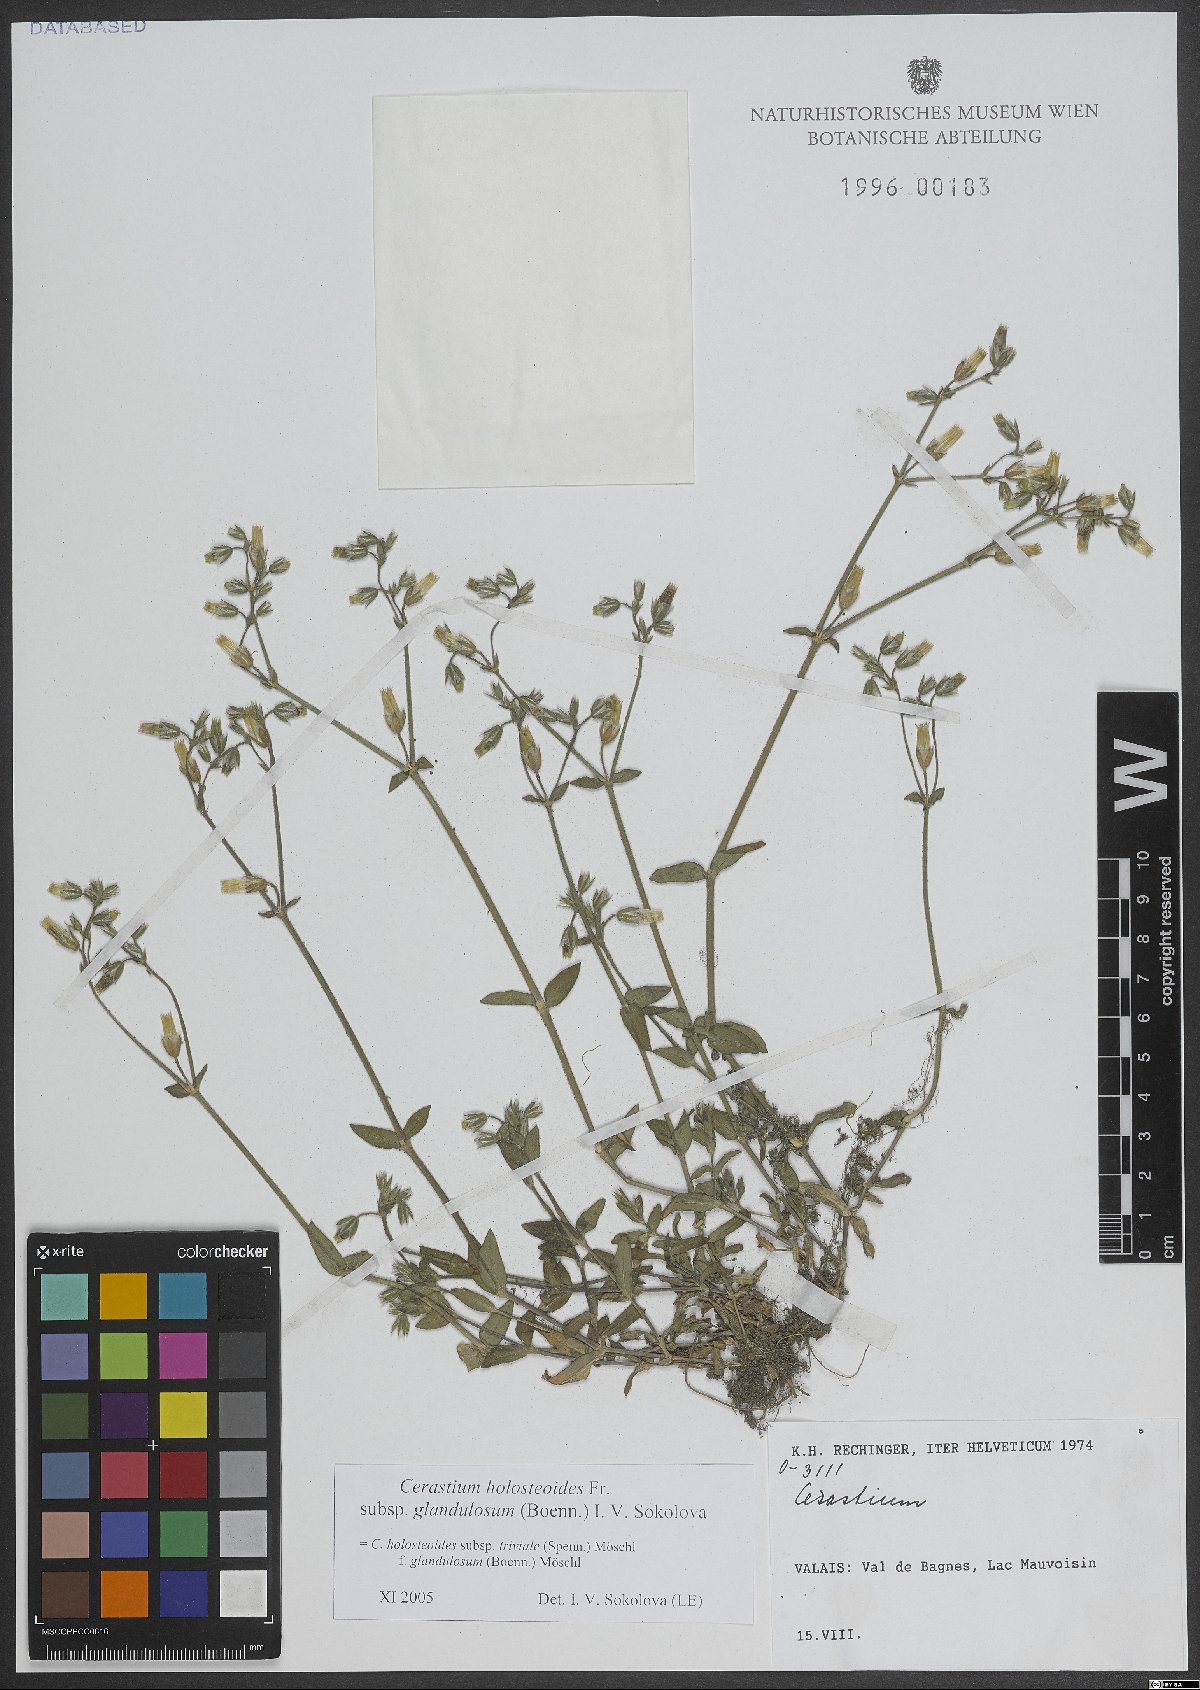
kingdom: Plantae
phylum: Tracheophyta
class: Magnoliopsida
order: Caryophyllales
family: Caryophyllaceae
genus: Cerastium
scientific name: Cerastium holosteoides
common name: Big chickweed
